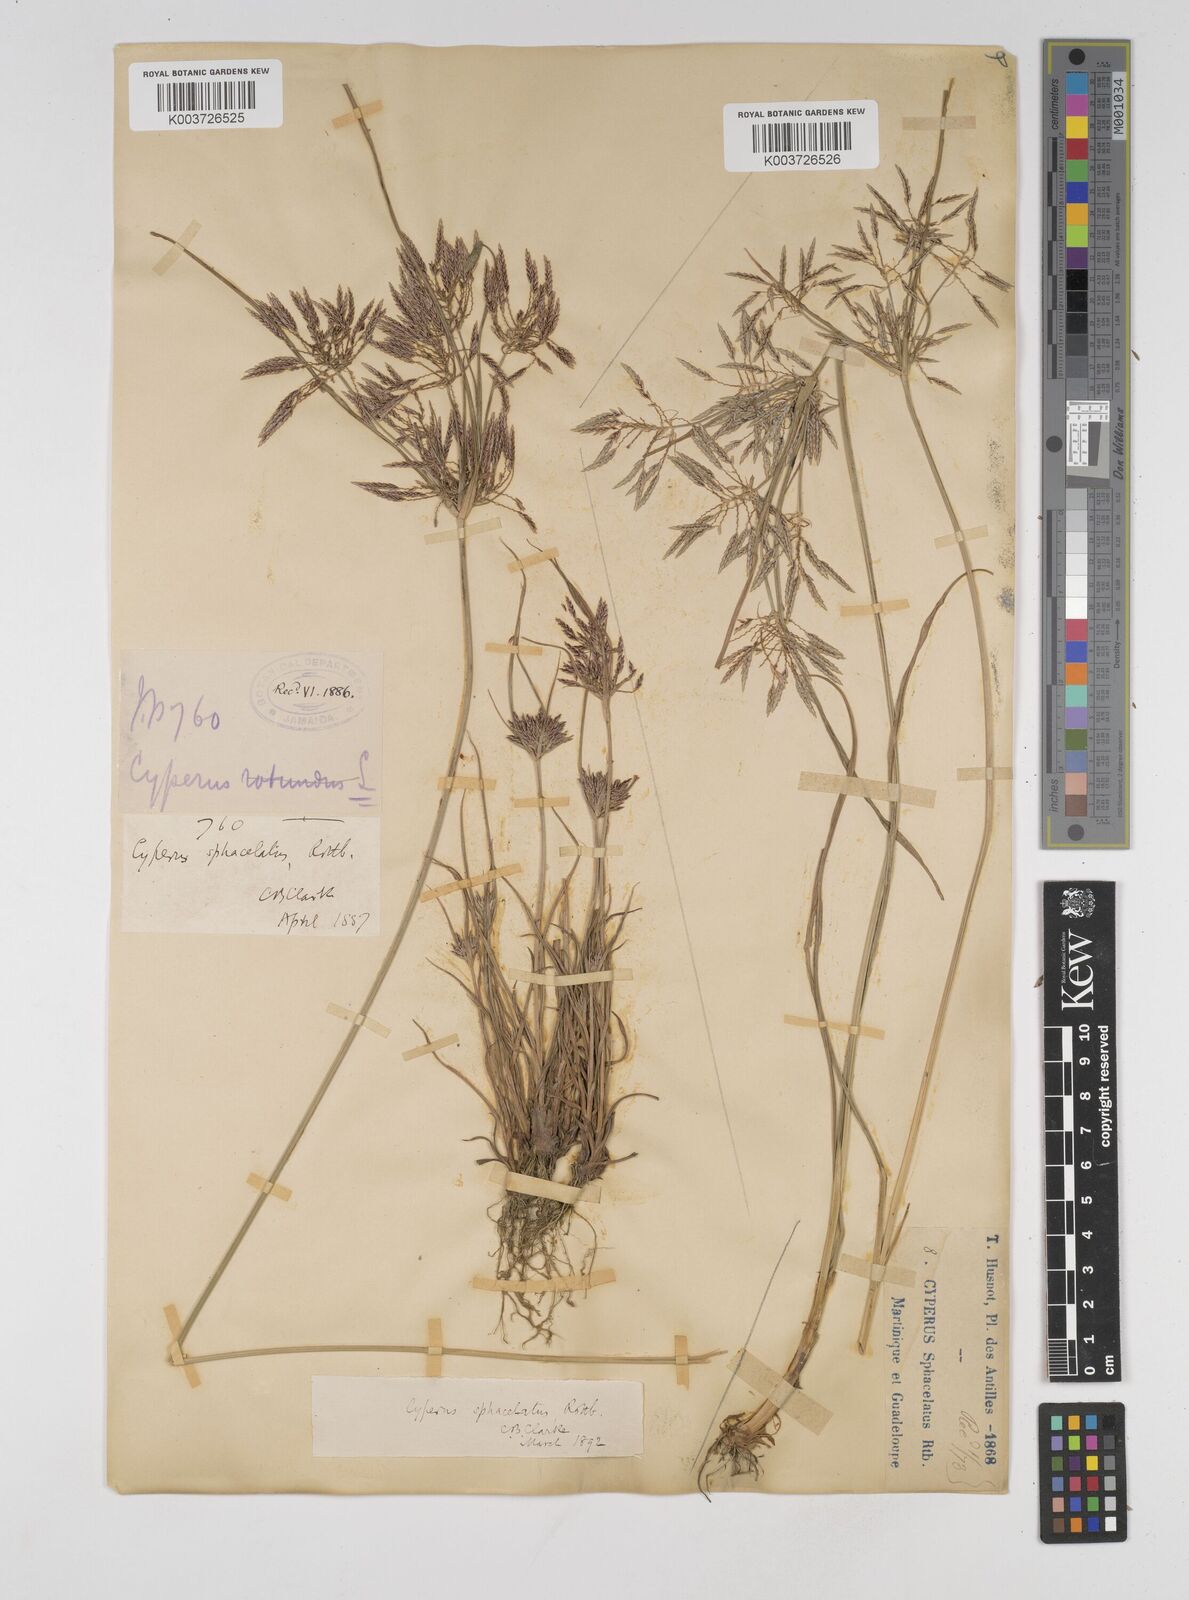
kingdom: Plantae
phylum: Tracheophyta
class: Liliopsida
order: Poales
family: Cyperaceae
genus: Cyperus
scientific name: Cyperus sphacelatus
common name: Roadside flatsedge
